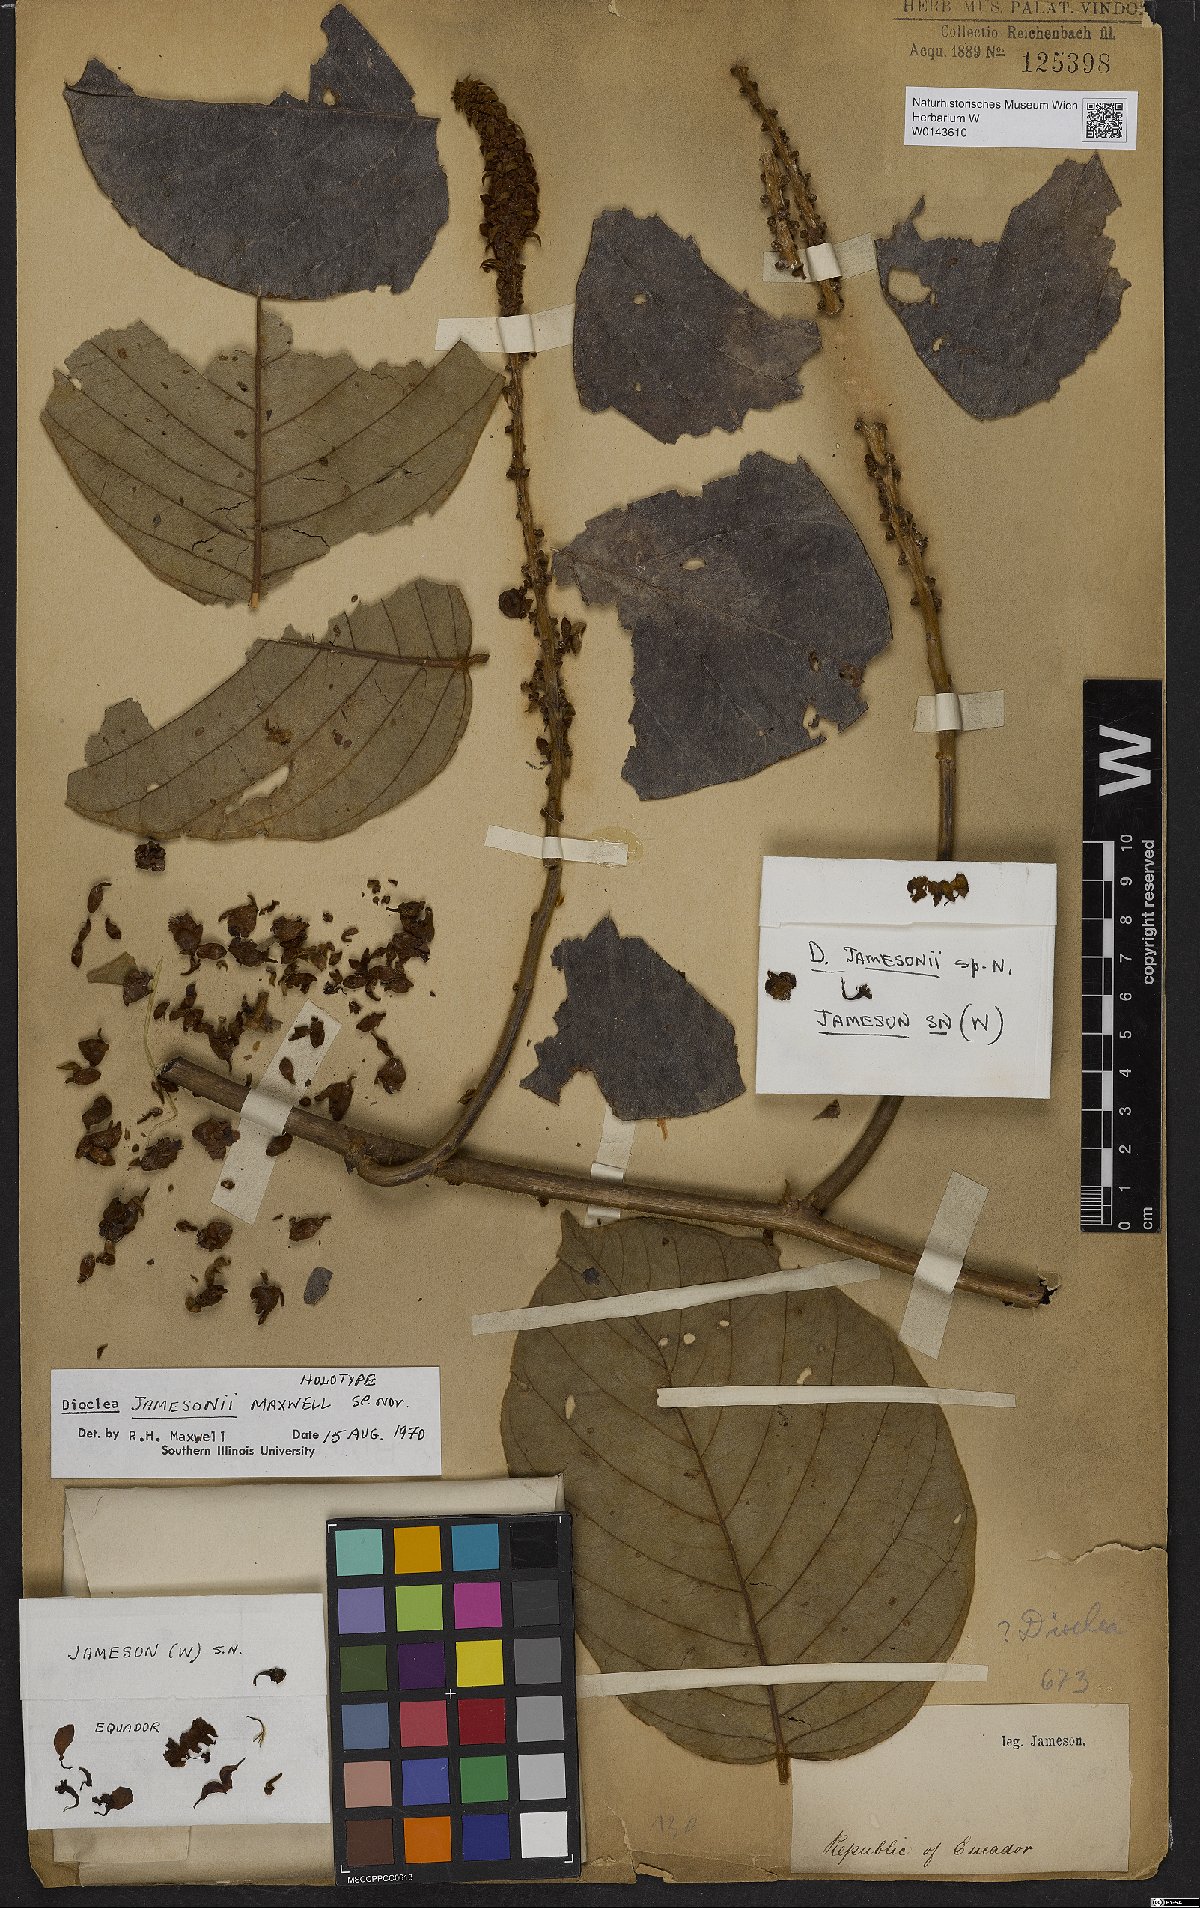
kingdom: Plantae
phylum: Tracheophyta
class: Magnoliopsida
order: Fabales
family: Fabaceae
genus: Macropsychanthus
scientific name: Macropsychanthus jamesonii
